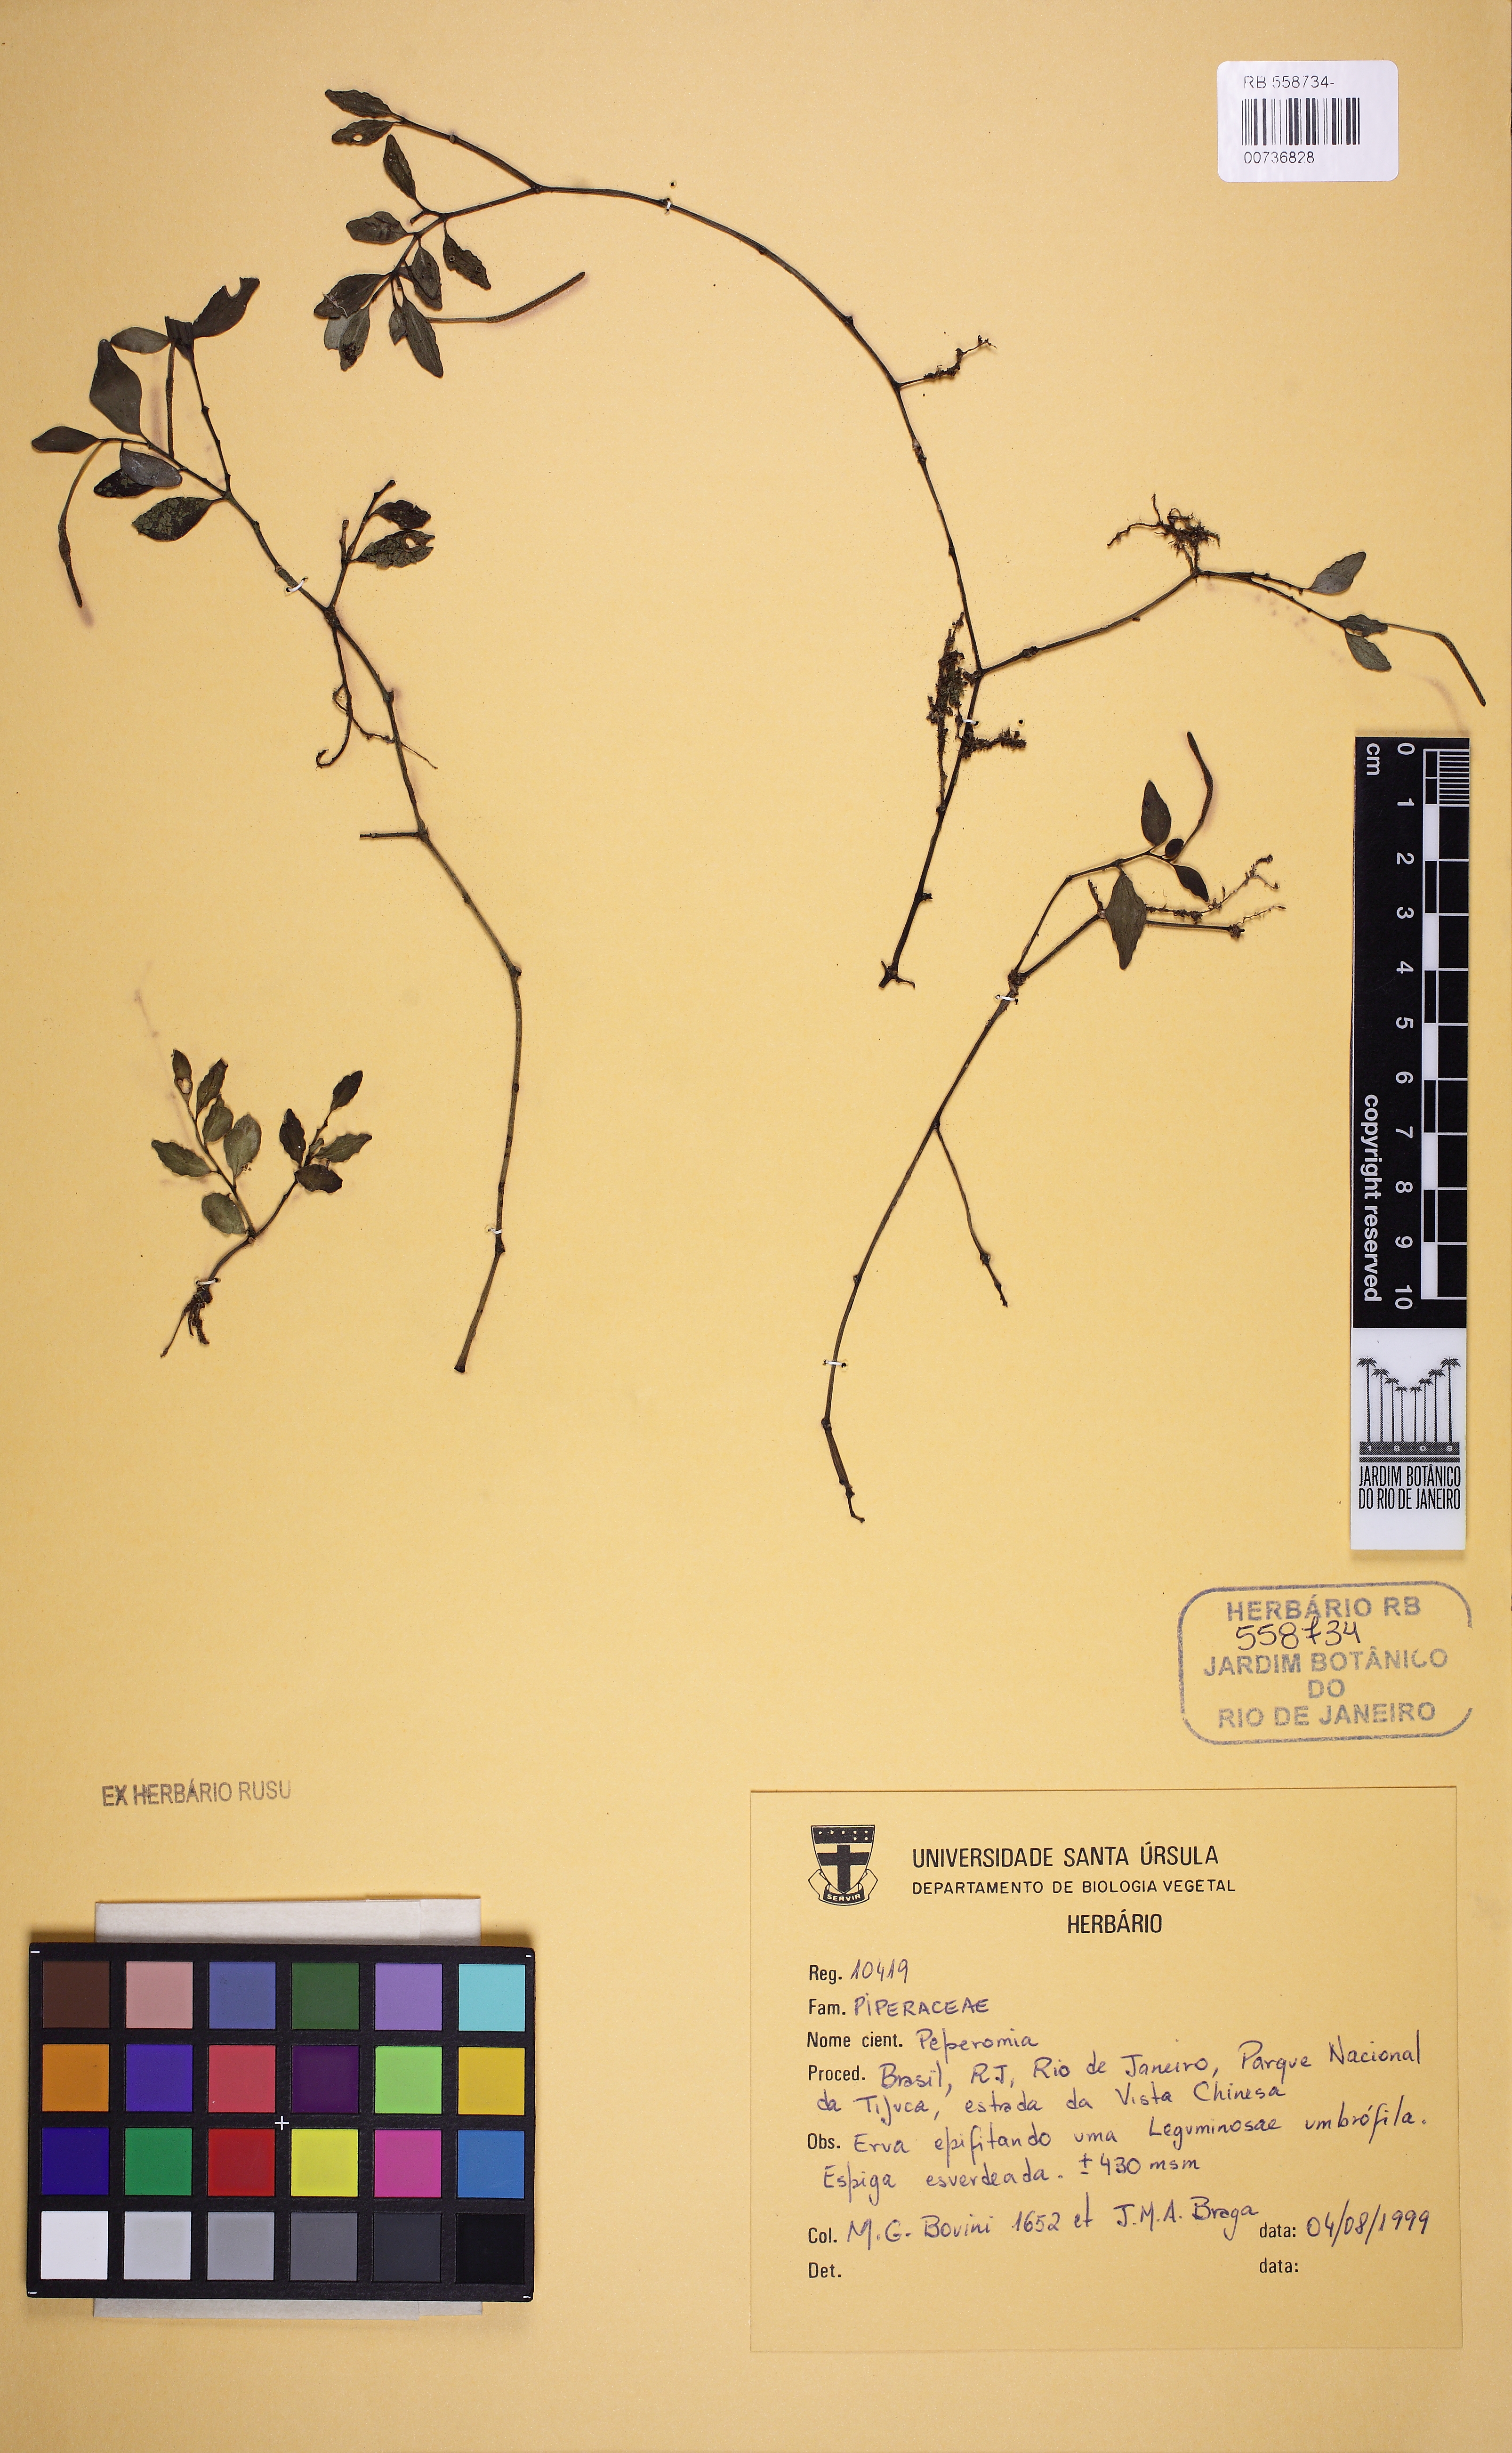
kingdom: Plantae
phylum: Tracheophyta
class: Magnoliopsida
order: Piperales
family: Piperaceae
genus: Peperomia
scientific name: Peperomia corcovadensis
